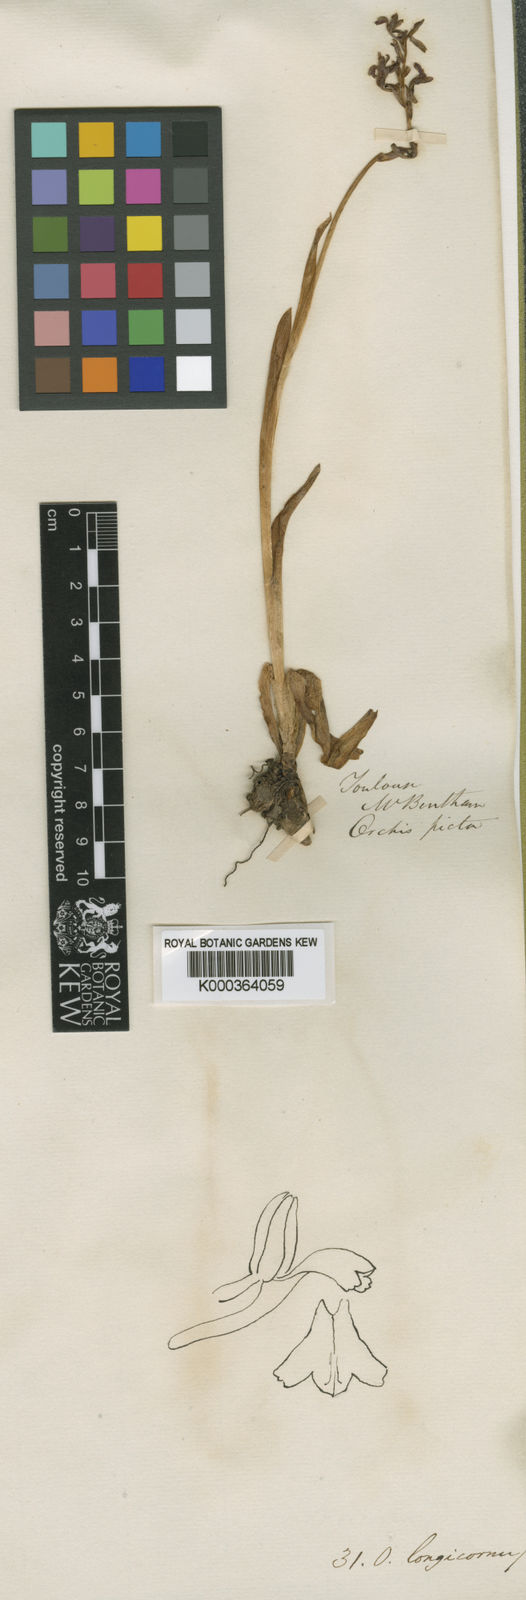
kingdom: Plantae
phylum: Tracheophyta
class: Liliopsida
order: Asparagales
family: Orchidaceae
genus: Anacamptis
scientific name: Anacamptis
